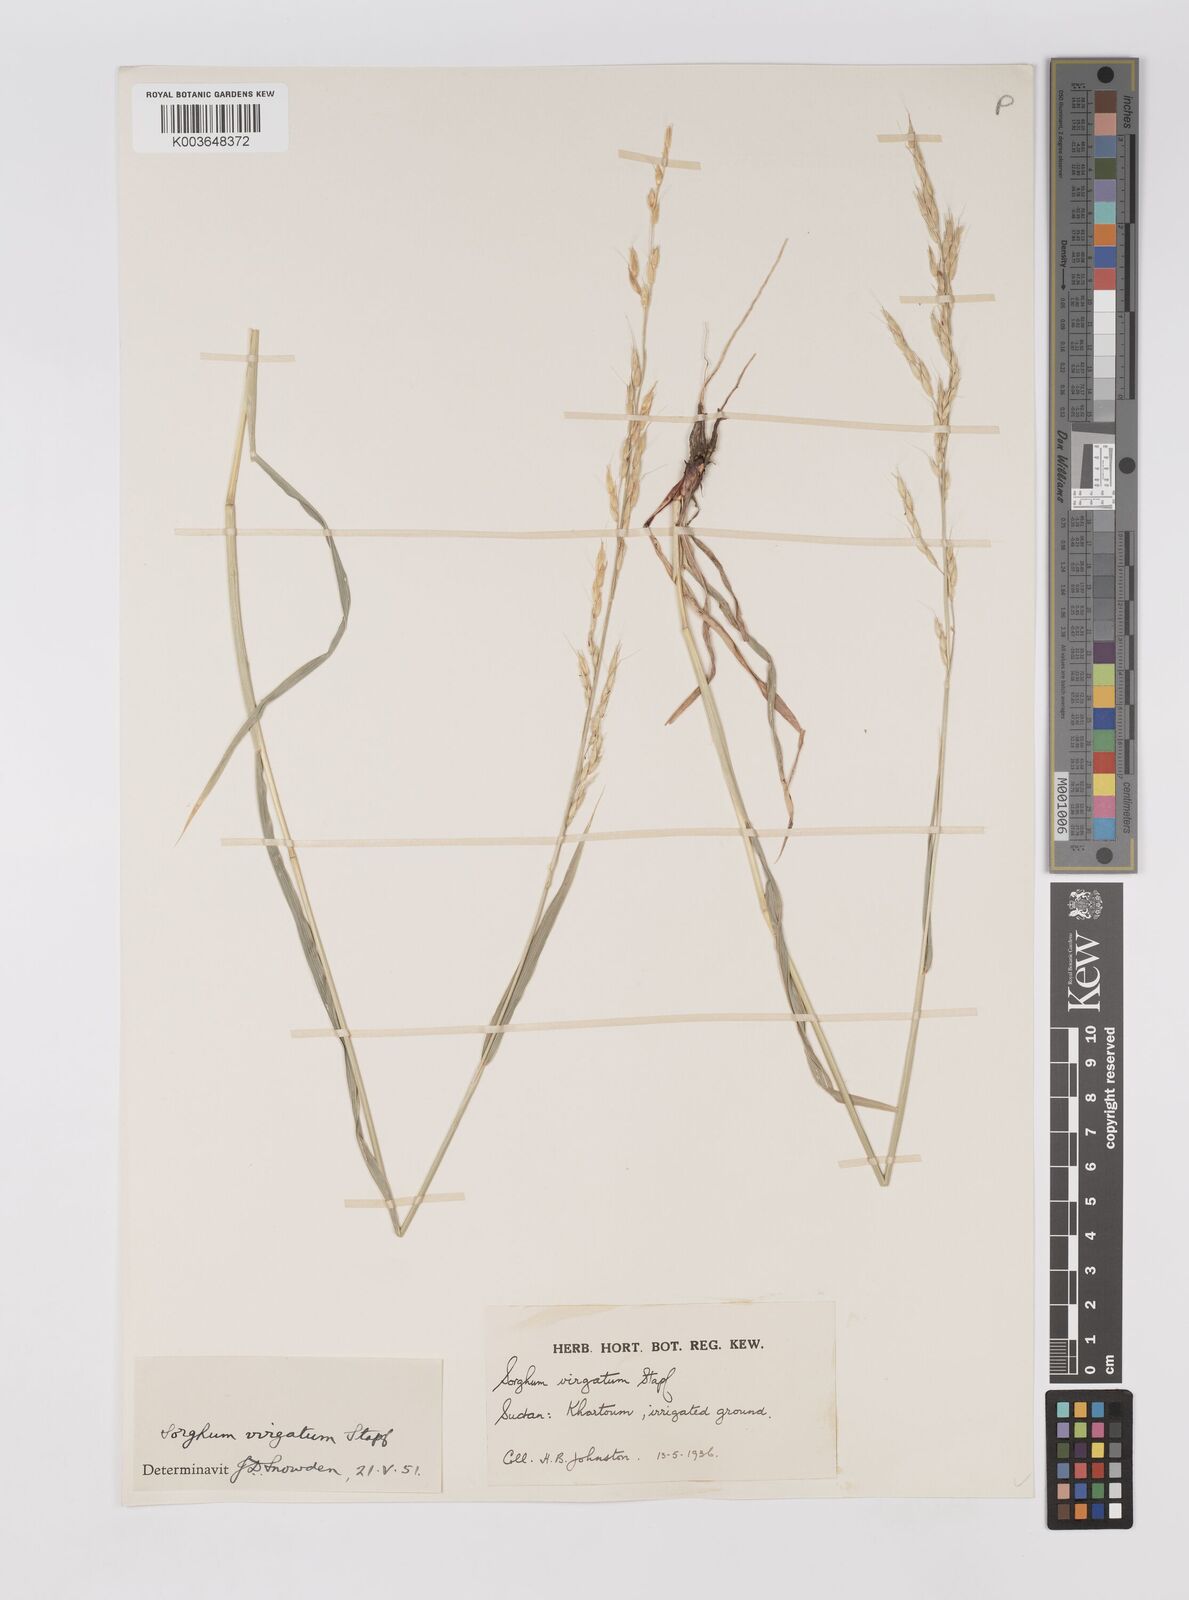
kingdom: Plantae
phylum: Tracheophyta
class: Liliopsida
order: Poales
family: Poaceae
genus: Sorghum
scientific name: Sorghum virgatum
